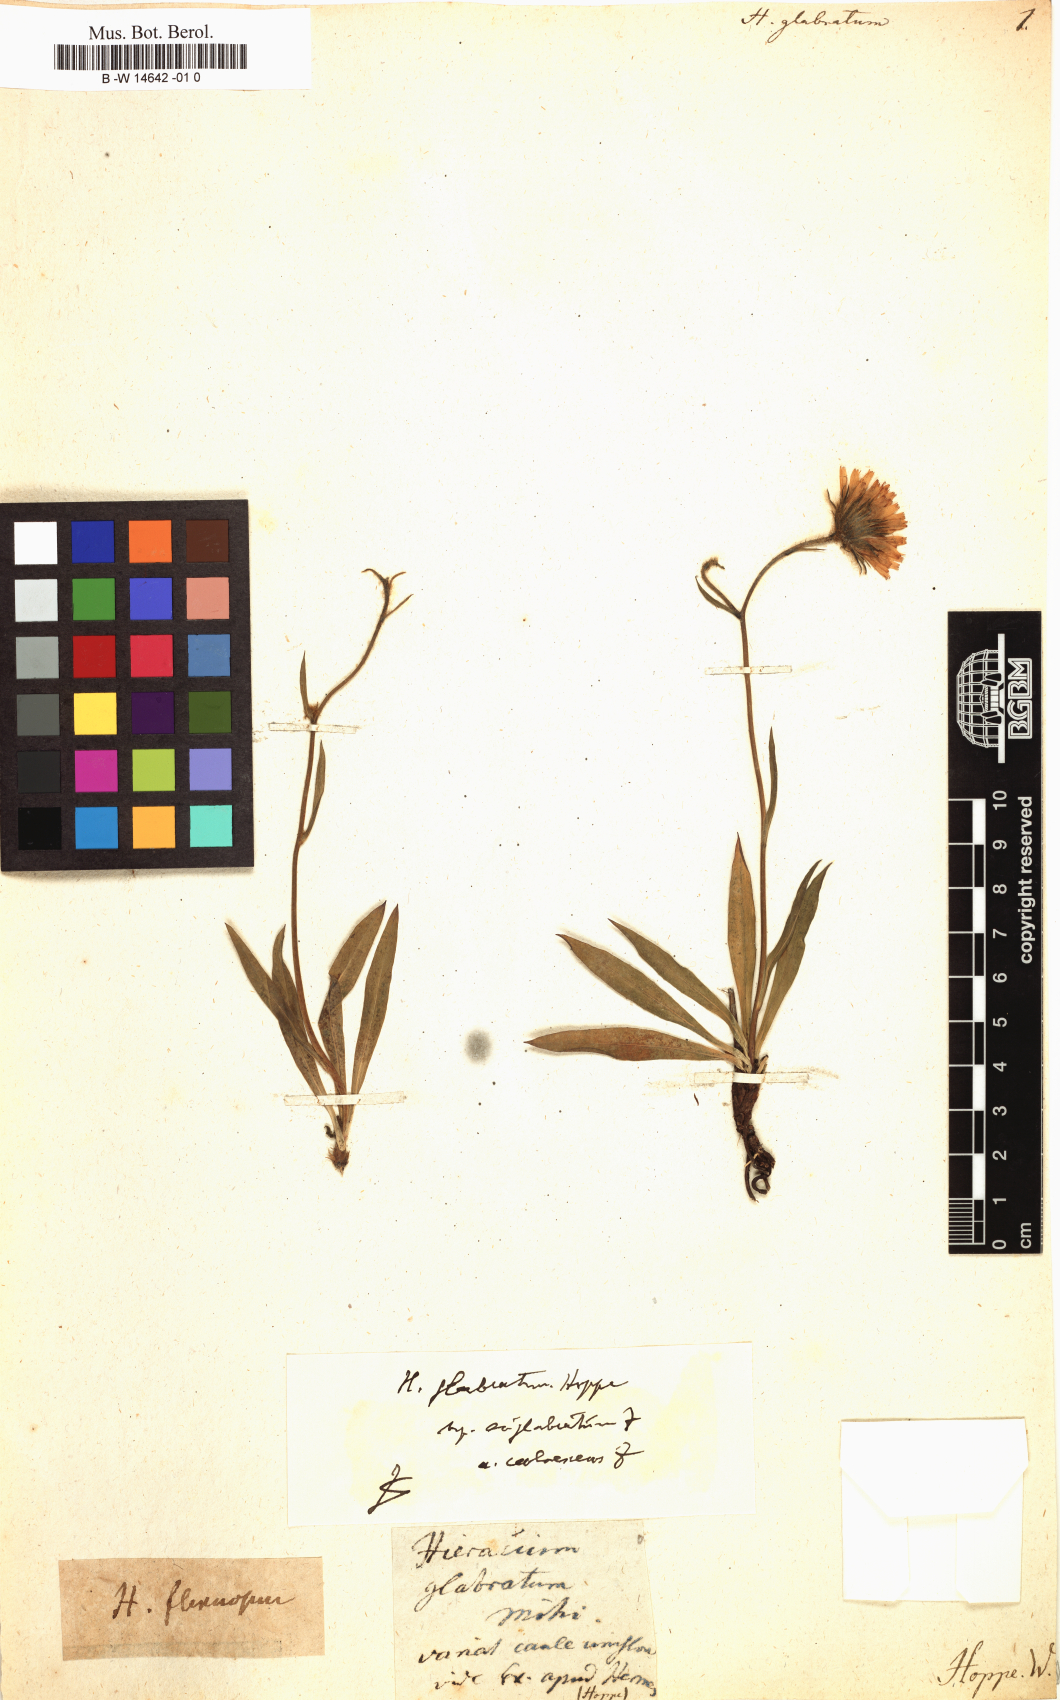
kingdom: Plantae
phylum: Tracheophyta
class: Magnoliopsida
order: Asterales
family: Asteraceae
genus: Hieracium
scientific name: Hieracium glabratum
